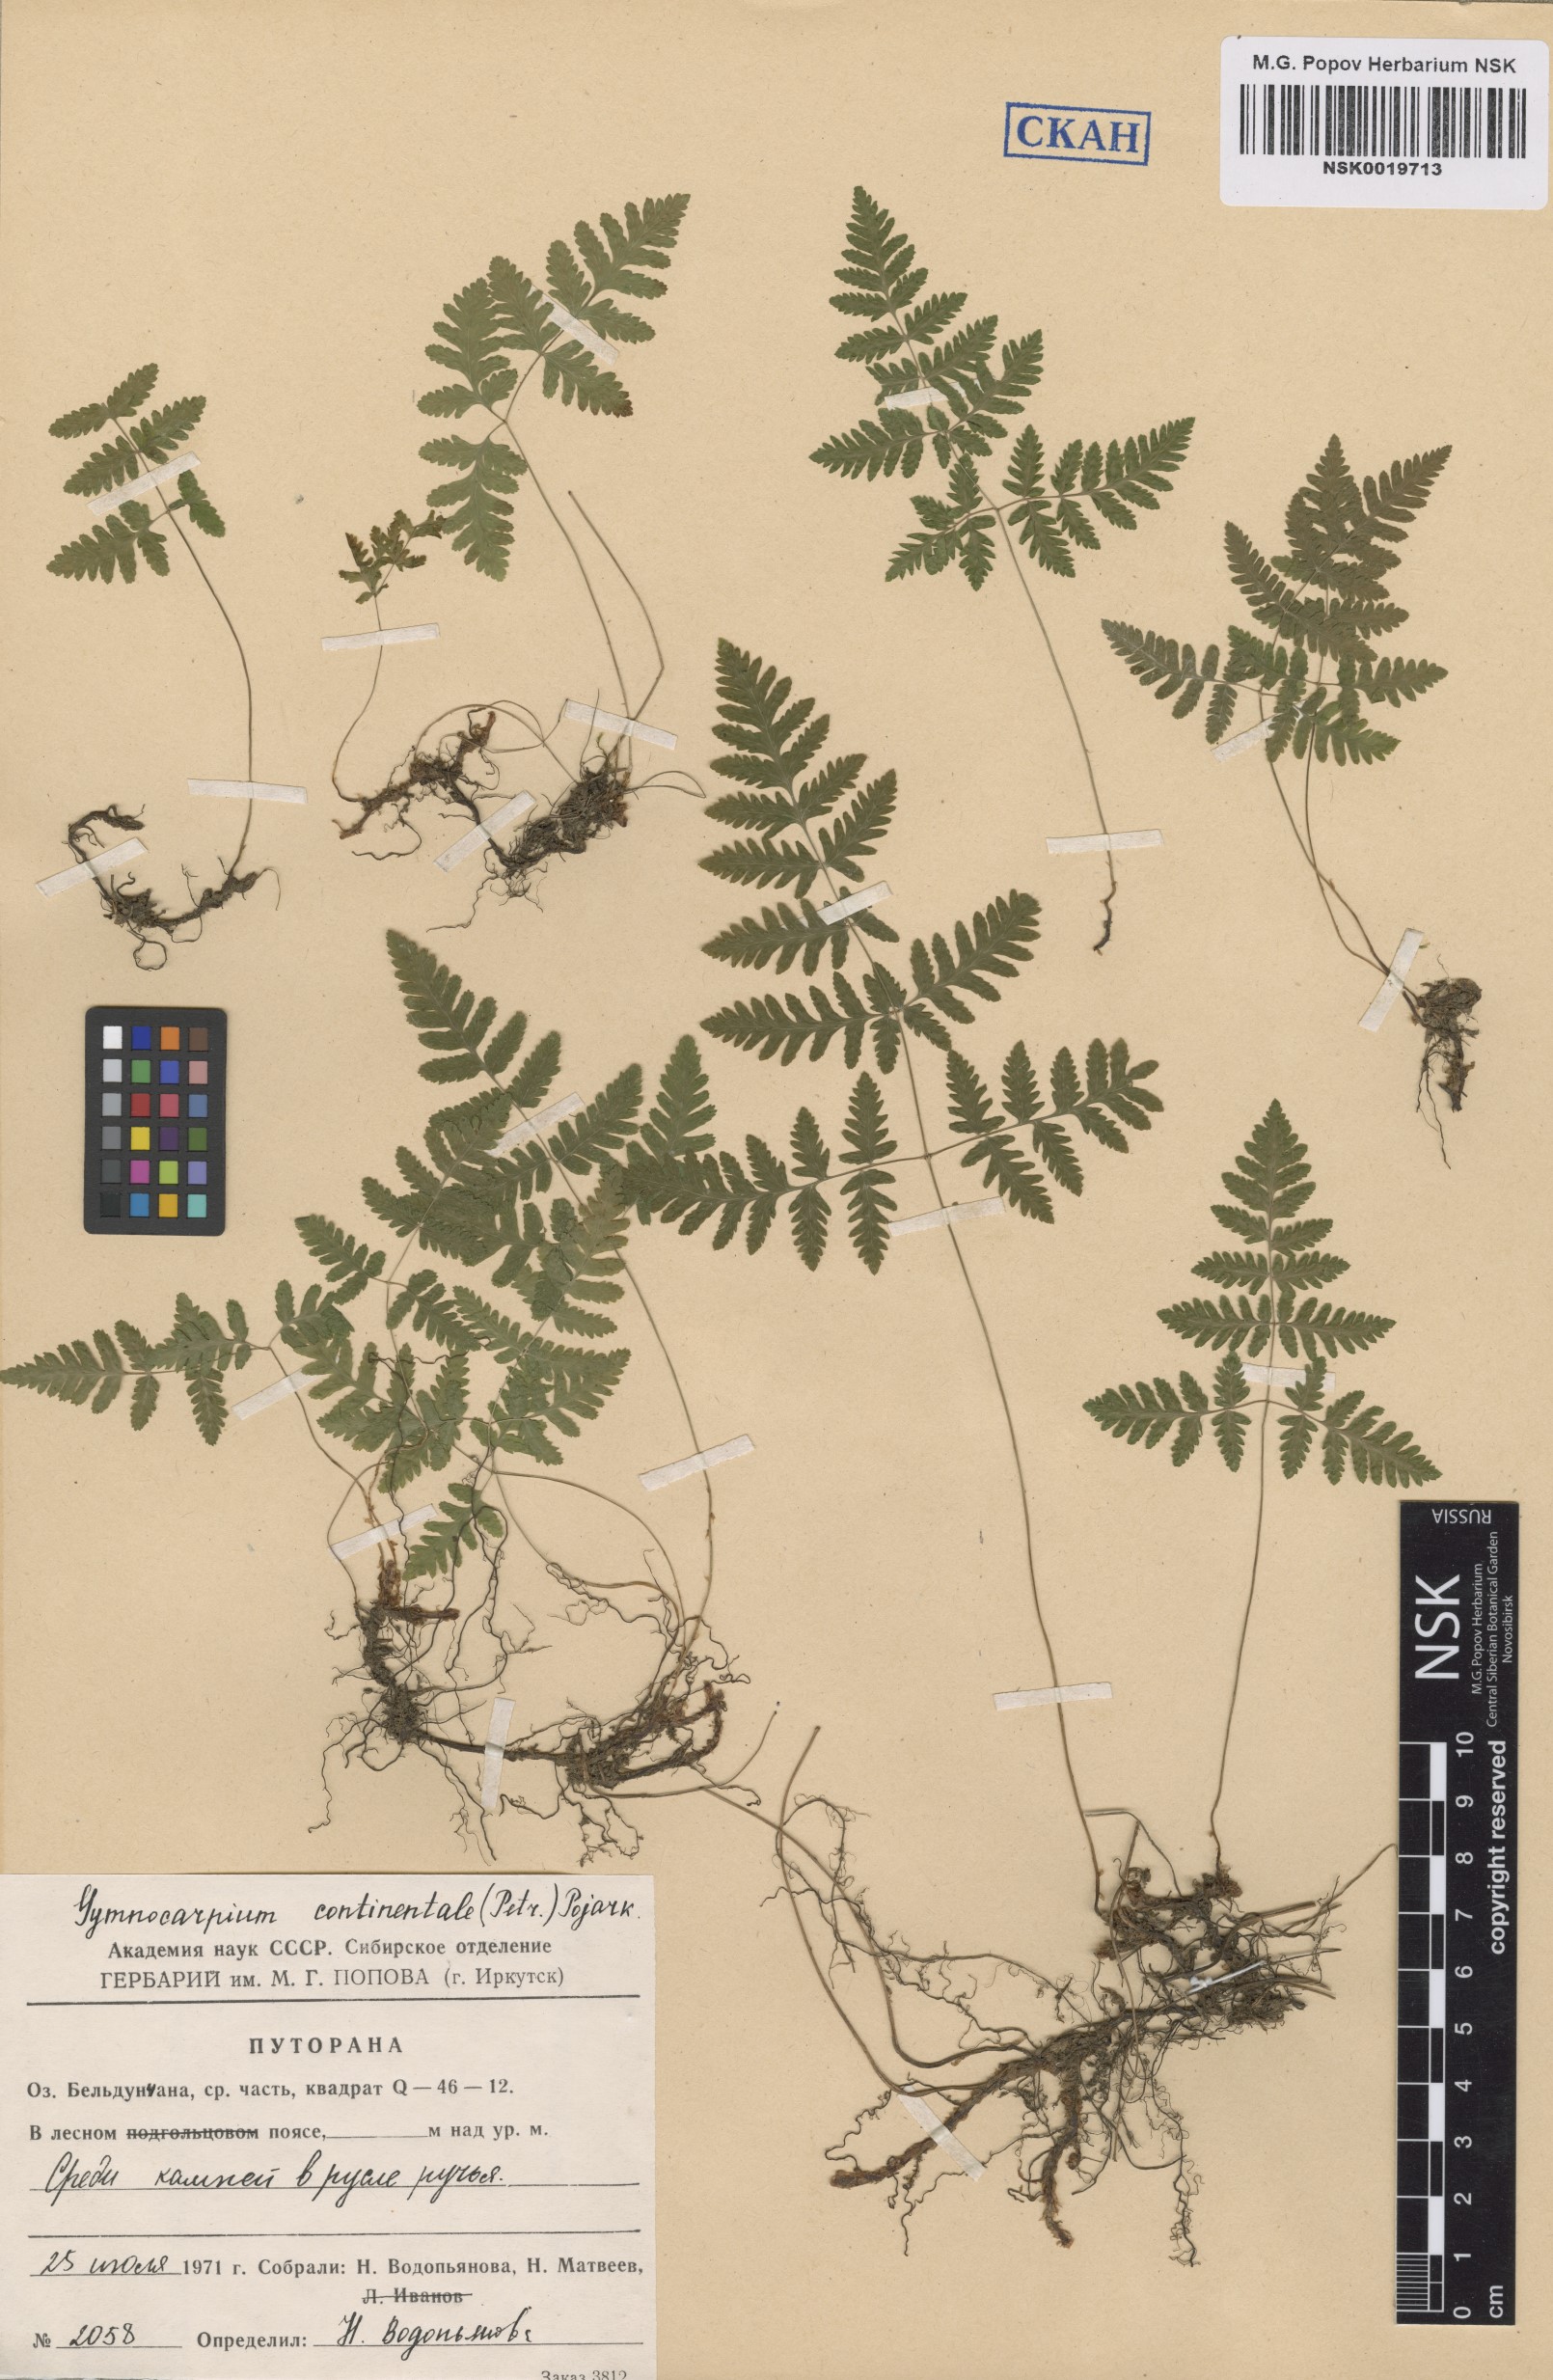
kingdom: Plantae
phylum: Tracheophyta
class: Polypodiopsida
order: Polypodiales
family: Cystopteridaceae
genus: Gymnocarpium
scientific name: Gymnocarpium continentale
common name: Asian oak fern
